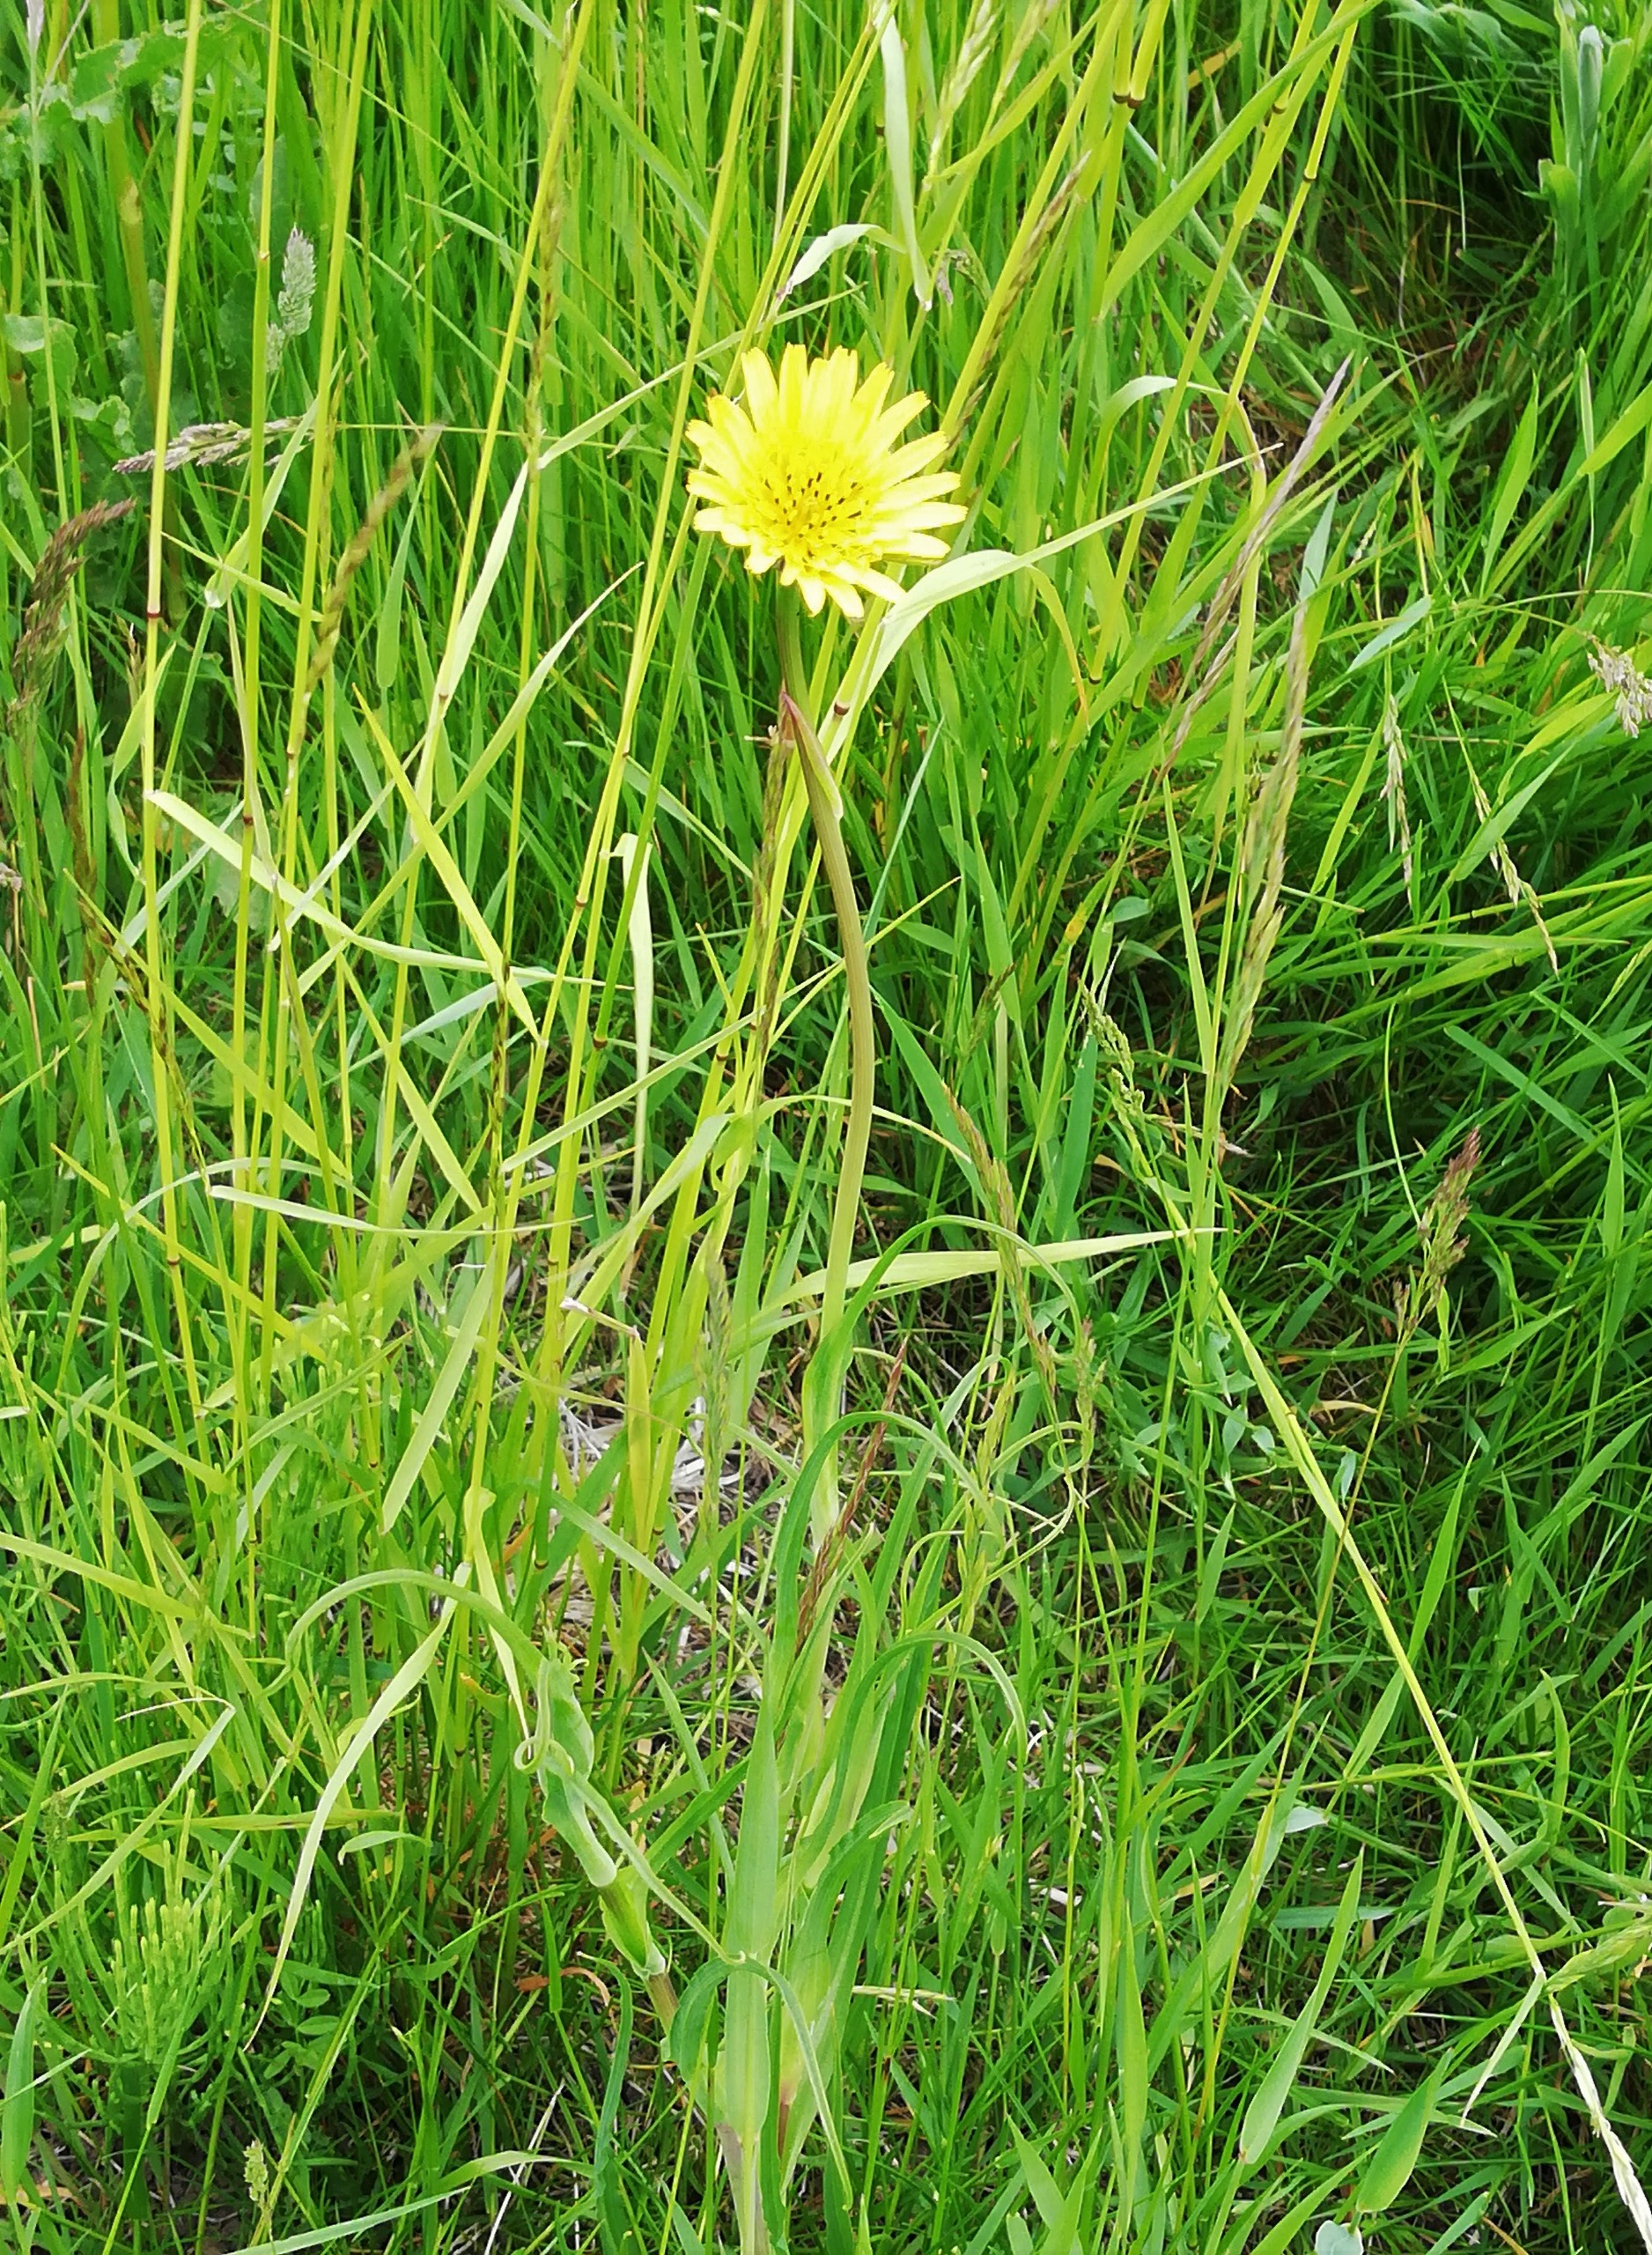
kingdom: Plantae
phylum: Tracheophyta
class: Magnoliopsida
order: Asterales
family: Asteraceae
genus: Tragopogon
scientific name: Tragopogon pratensis
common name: Gedeskæg
